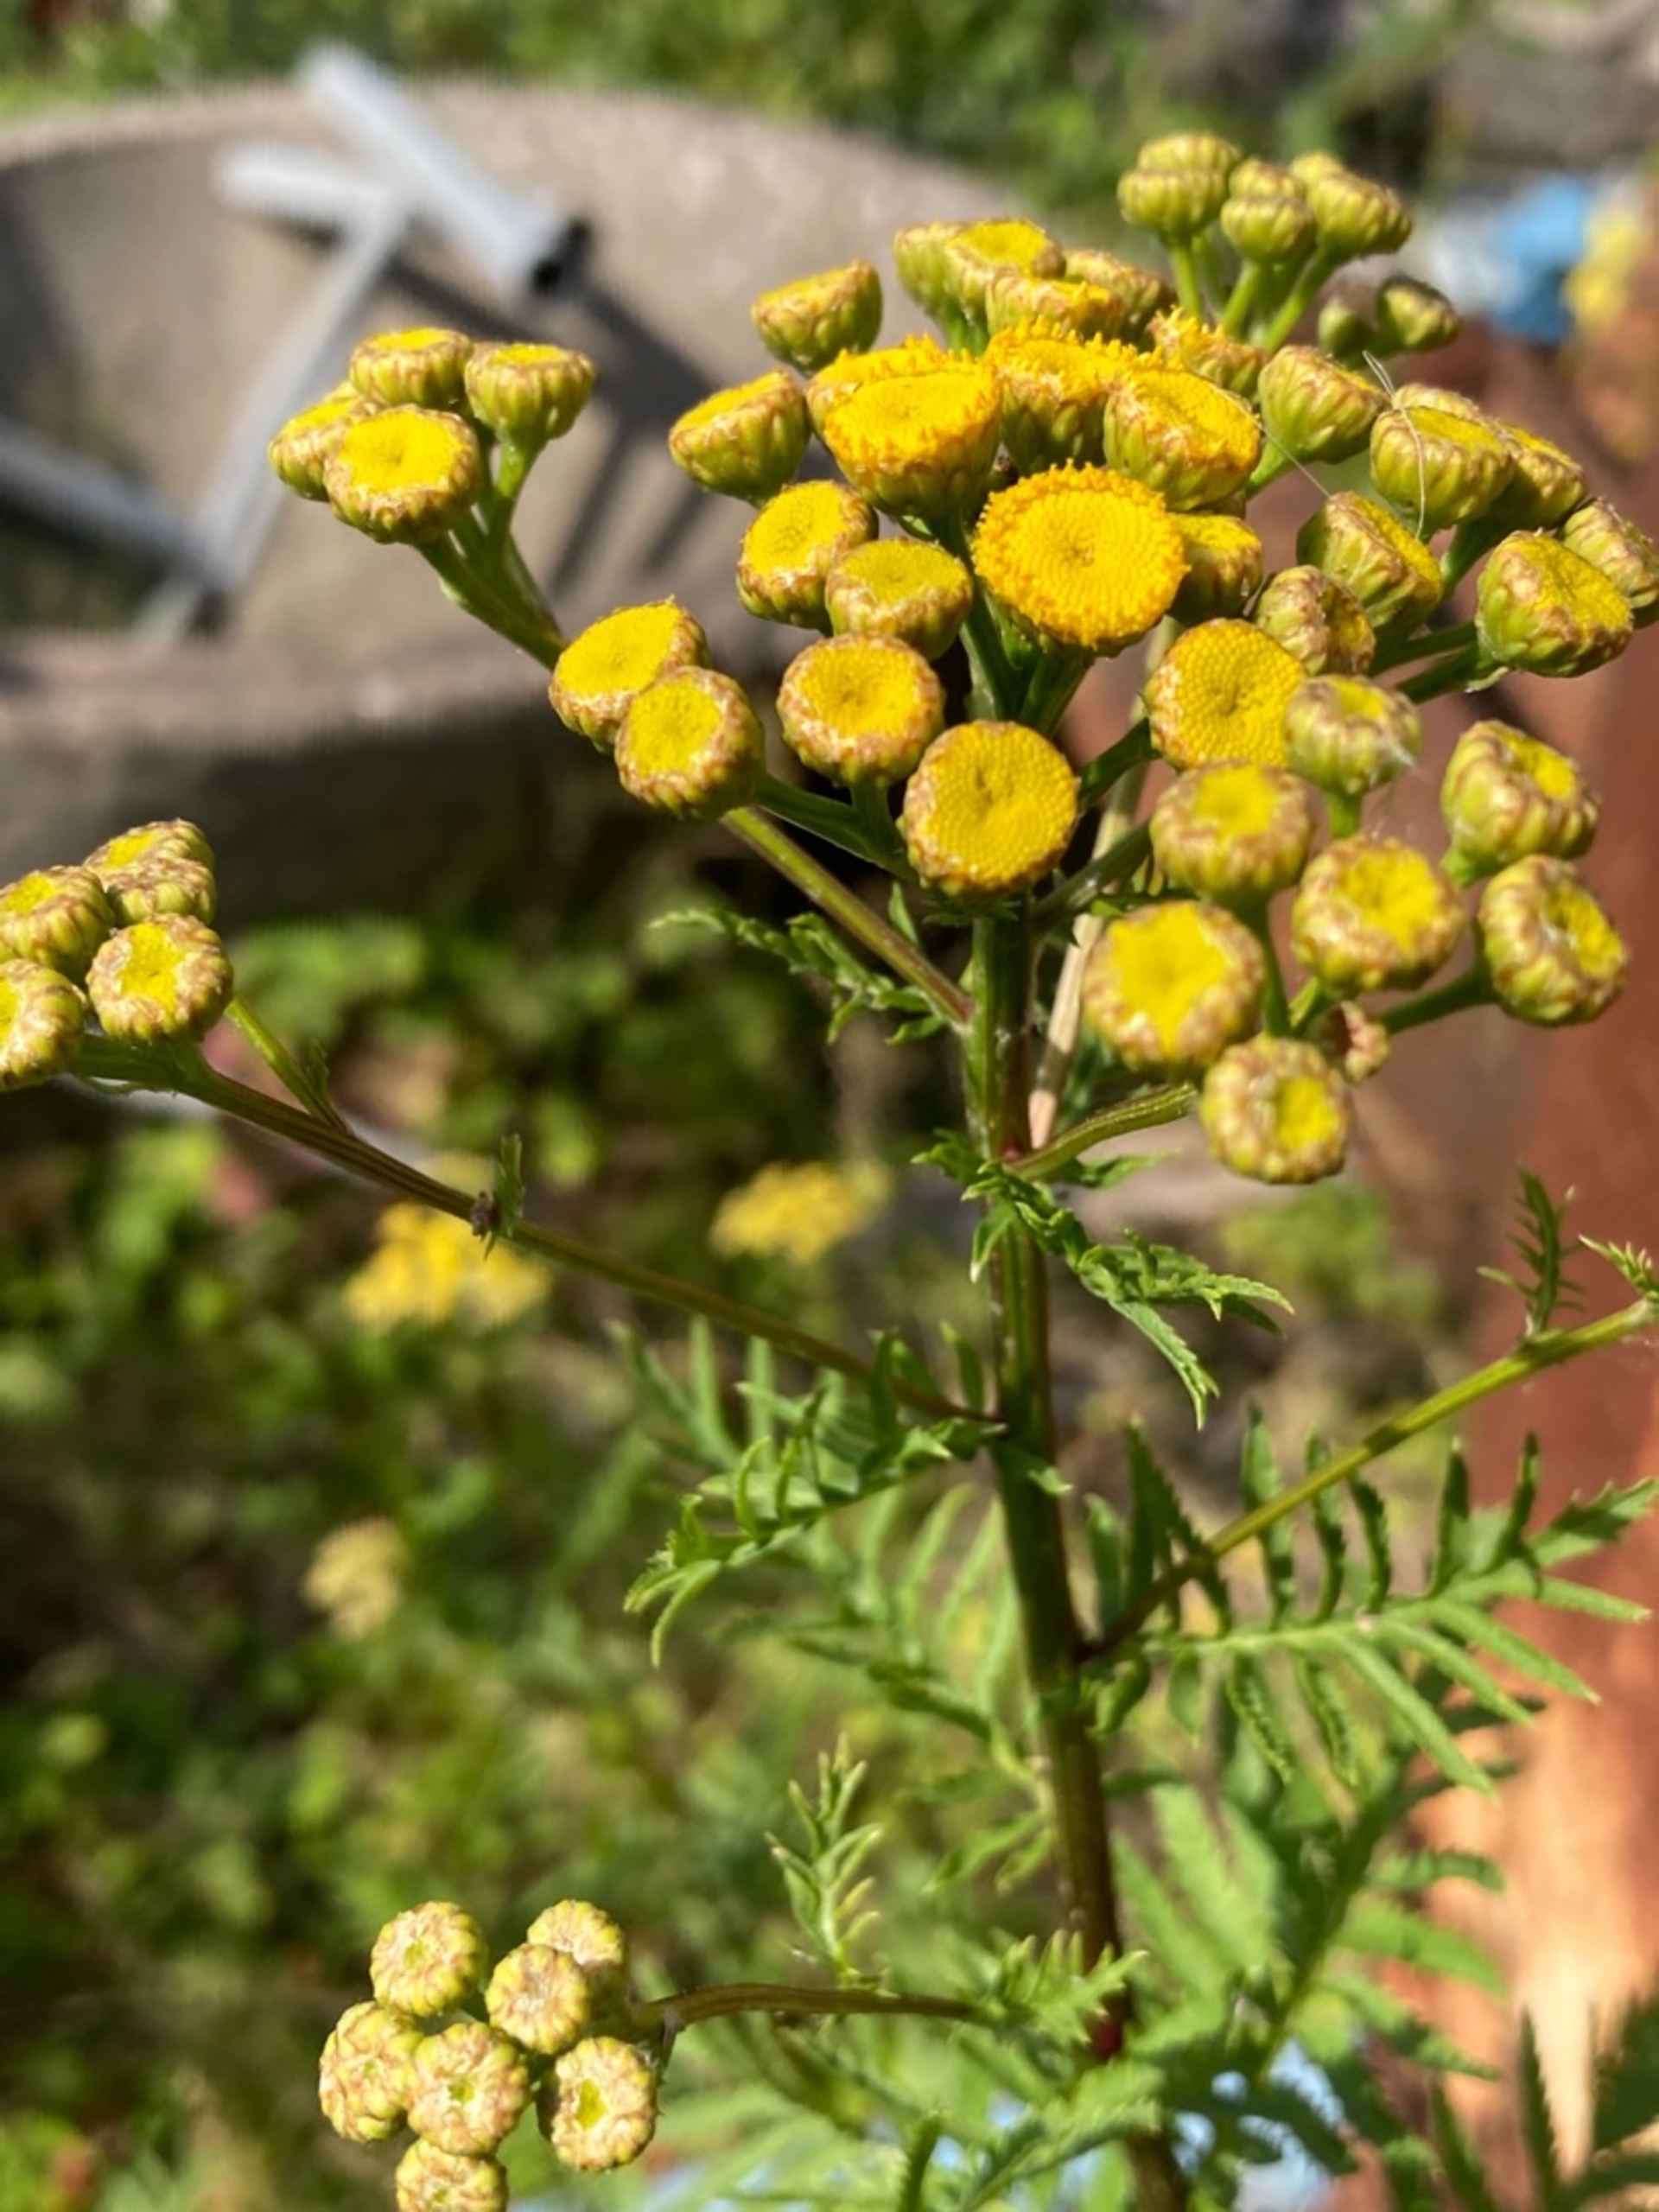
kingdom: Plantae
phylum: Tracheophyta
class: Magnoliopsida
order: Asterales
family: Asteraceae
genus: Tanacetum
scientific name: Tanacetum vulgare
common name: Rejnfan
